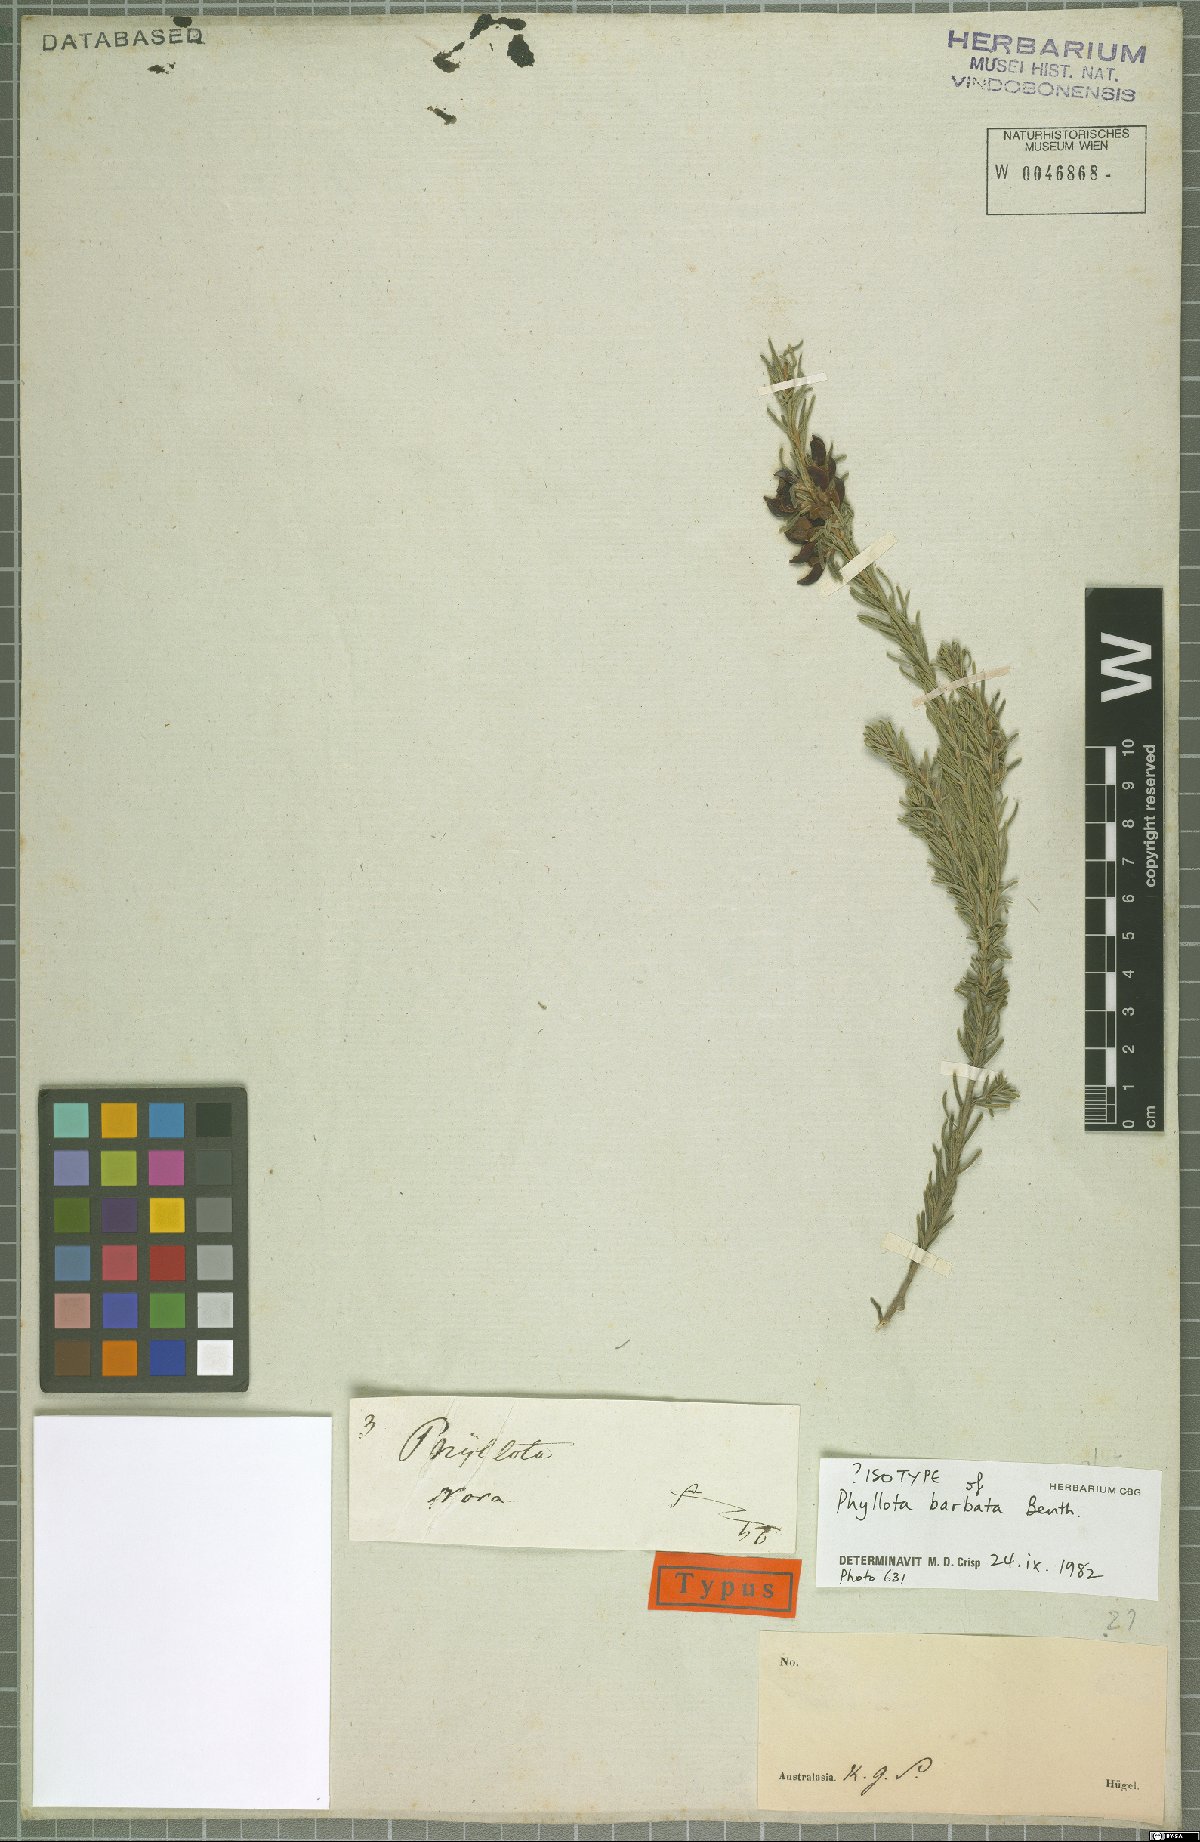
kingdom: Plantae
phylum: Tracheophyta
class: Magnoliopsida
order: Fabales
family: Fabaceae
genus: Phyllota
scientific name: Phyllota barbata
